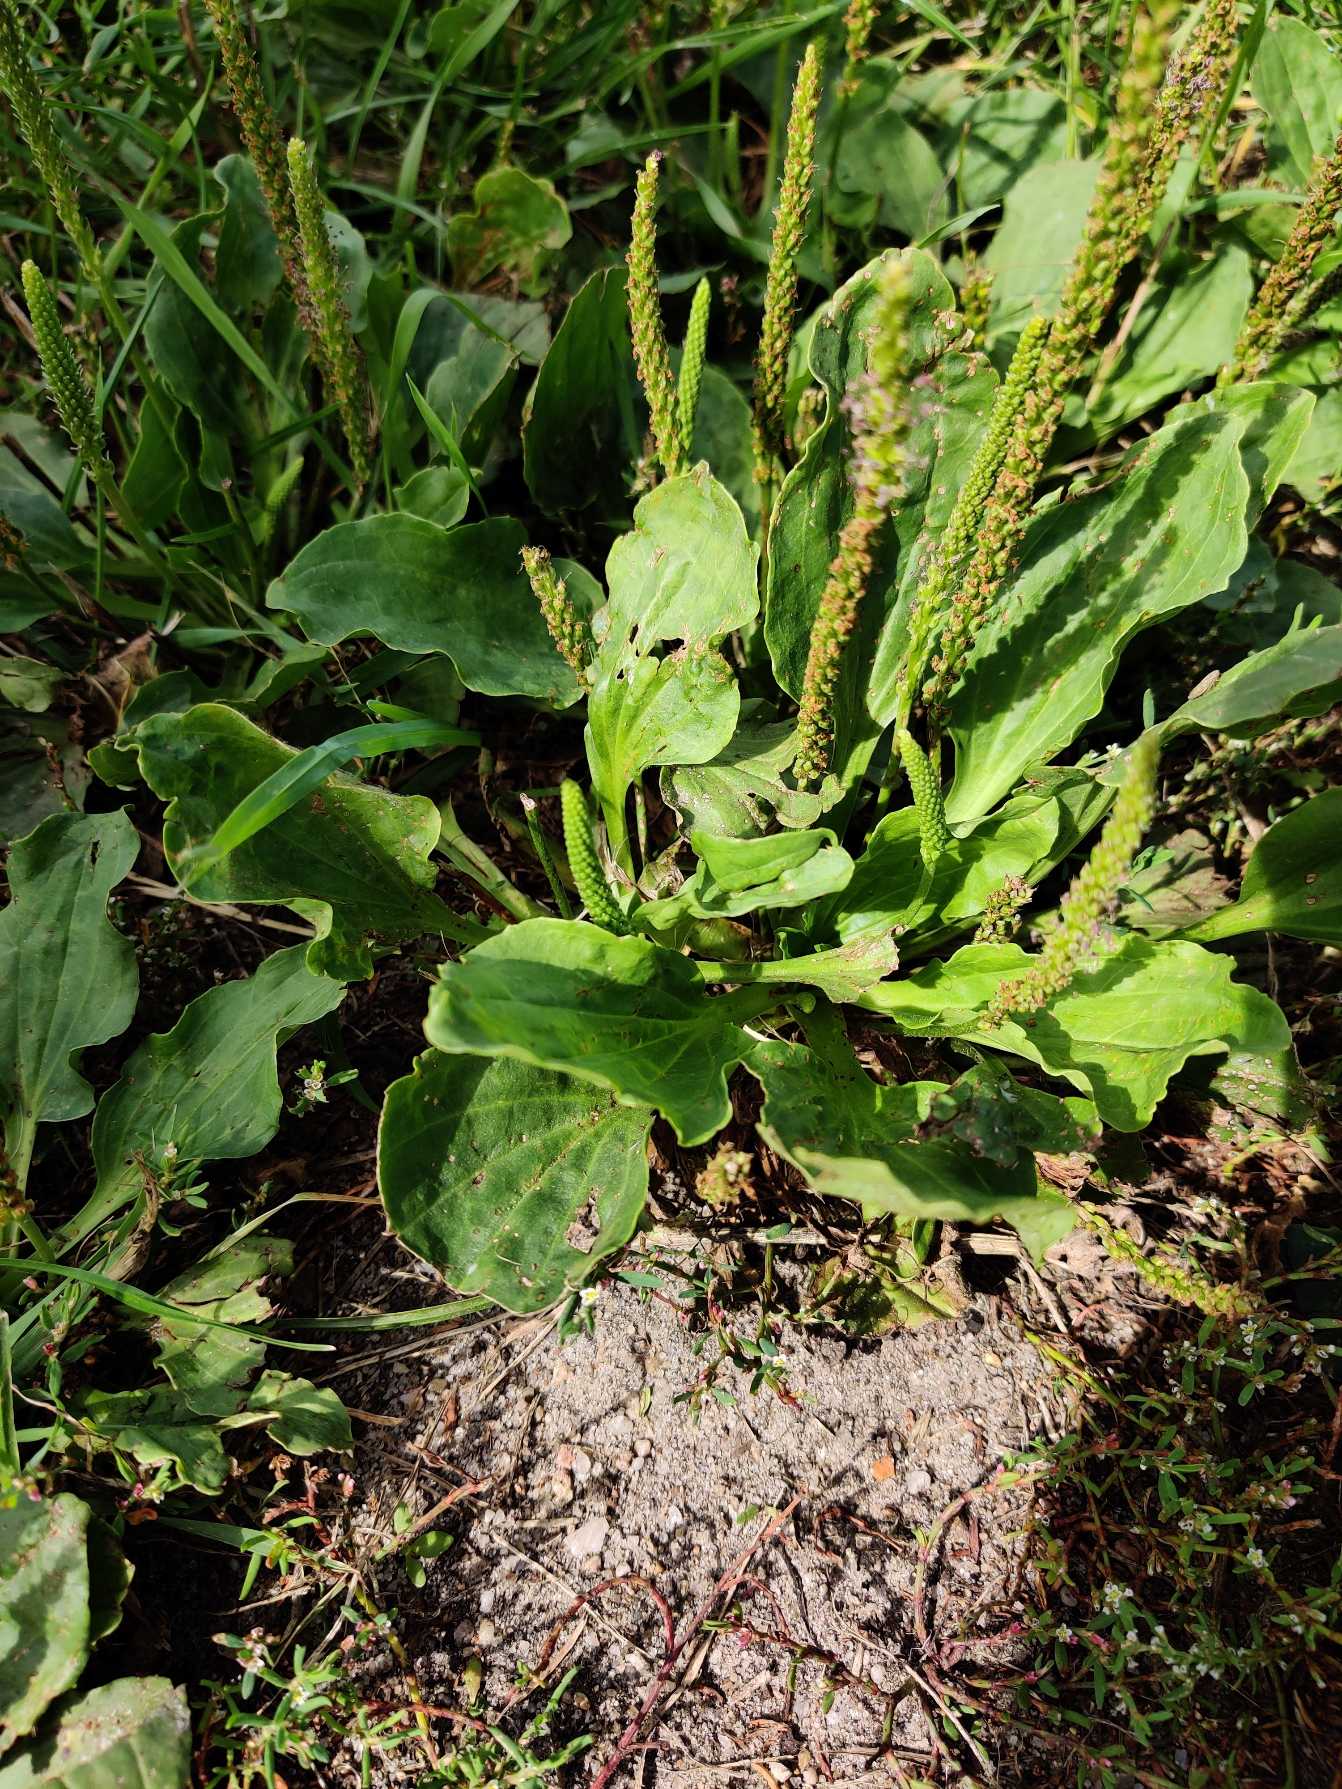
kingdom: Plantae
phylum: Tracheophyta
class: Magnoliopsida
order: Lamiales
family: Plantaginaceae
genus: Plantago
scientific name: Plantago major
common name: Glat vejbred
